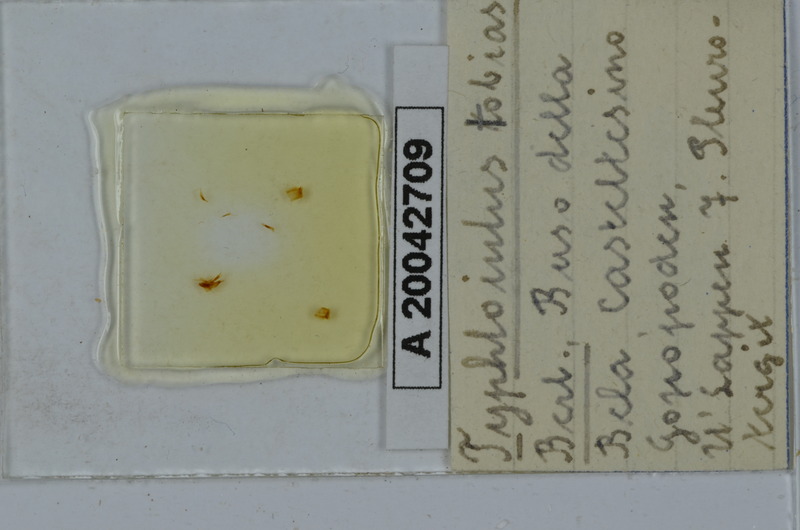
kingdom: Animalia
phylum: Arthropoda
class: Diplopoda
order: Julida
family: Julidae
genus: Stygiiulus
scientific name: Stygiiulus tobias
